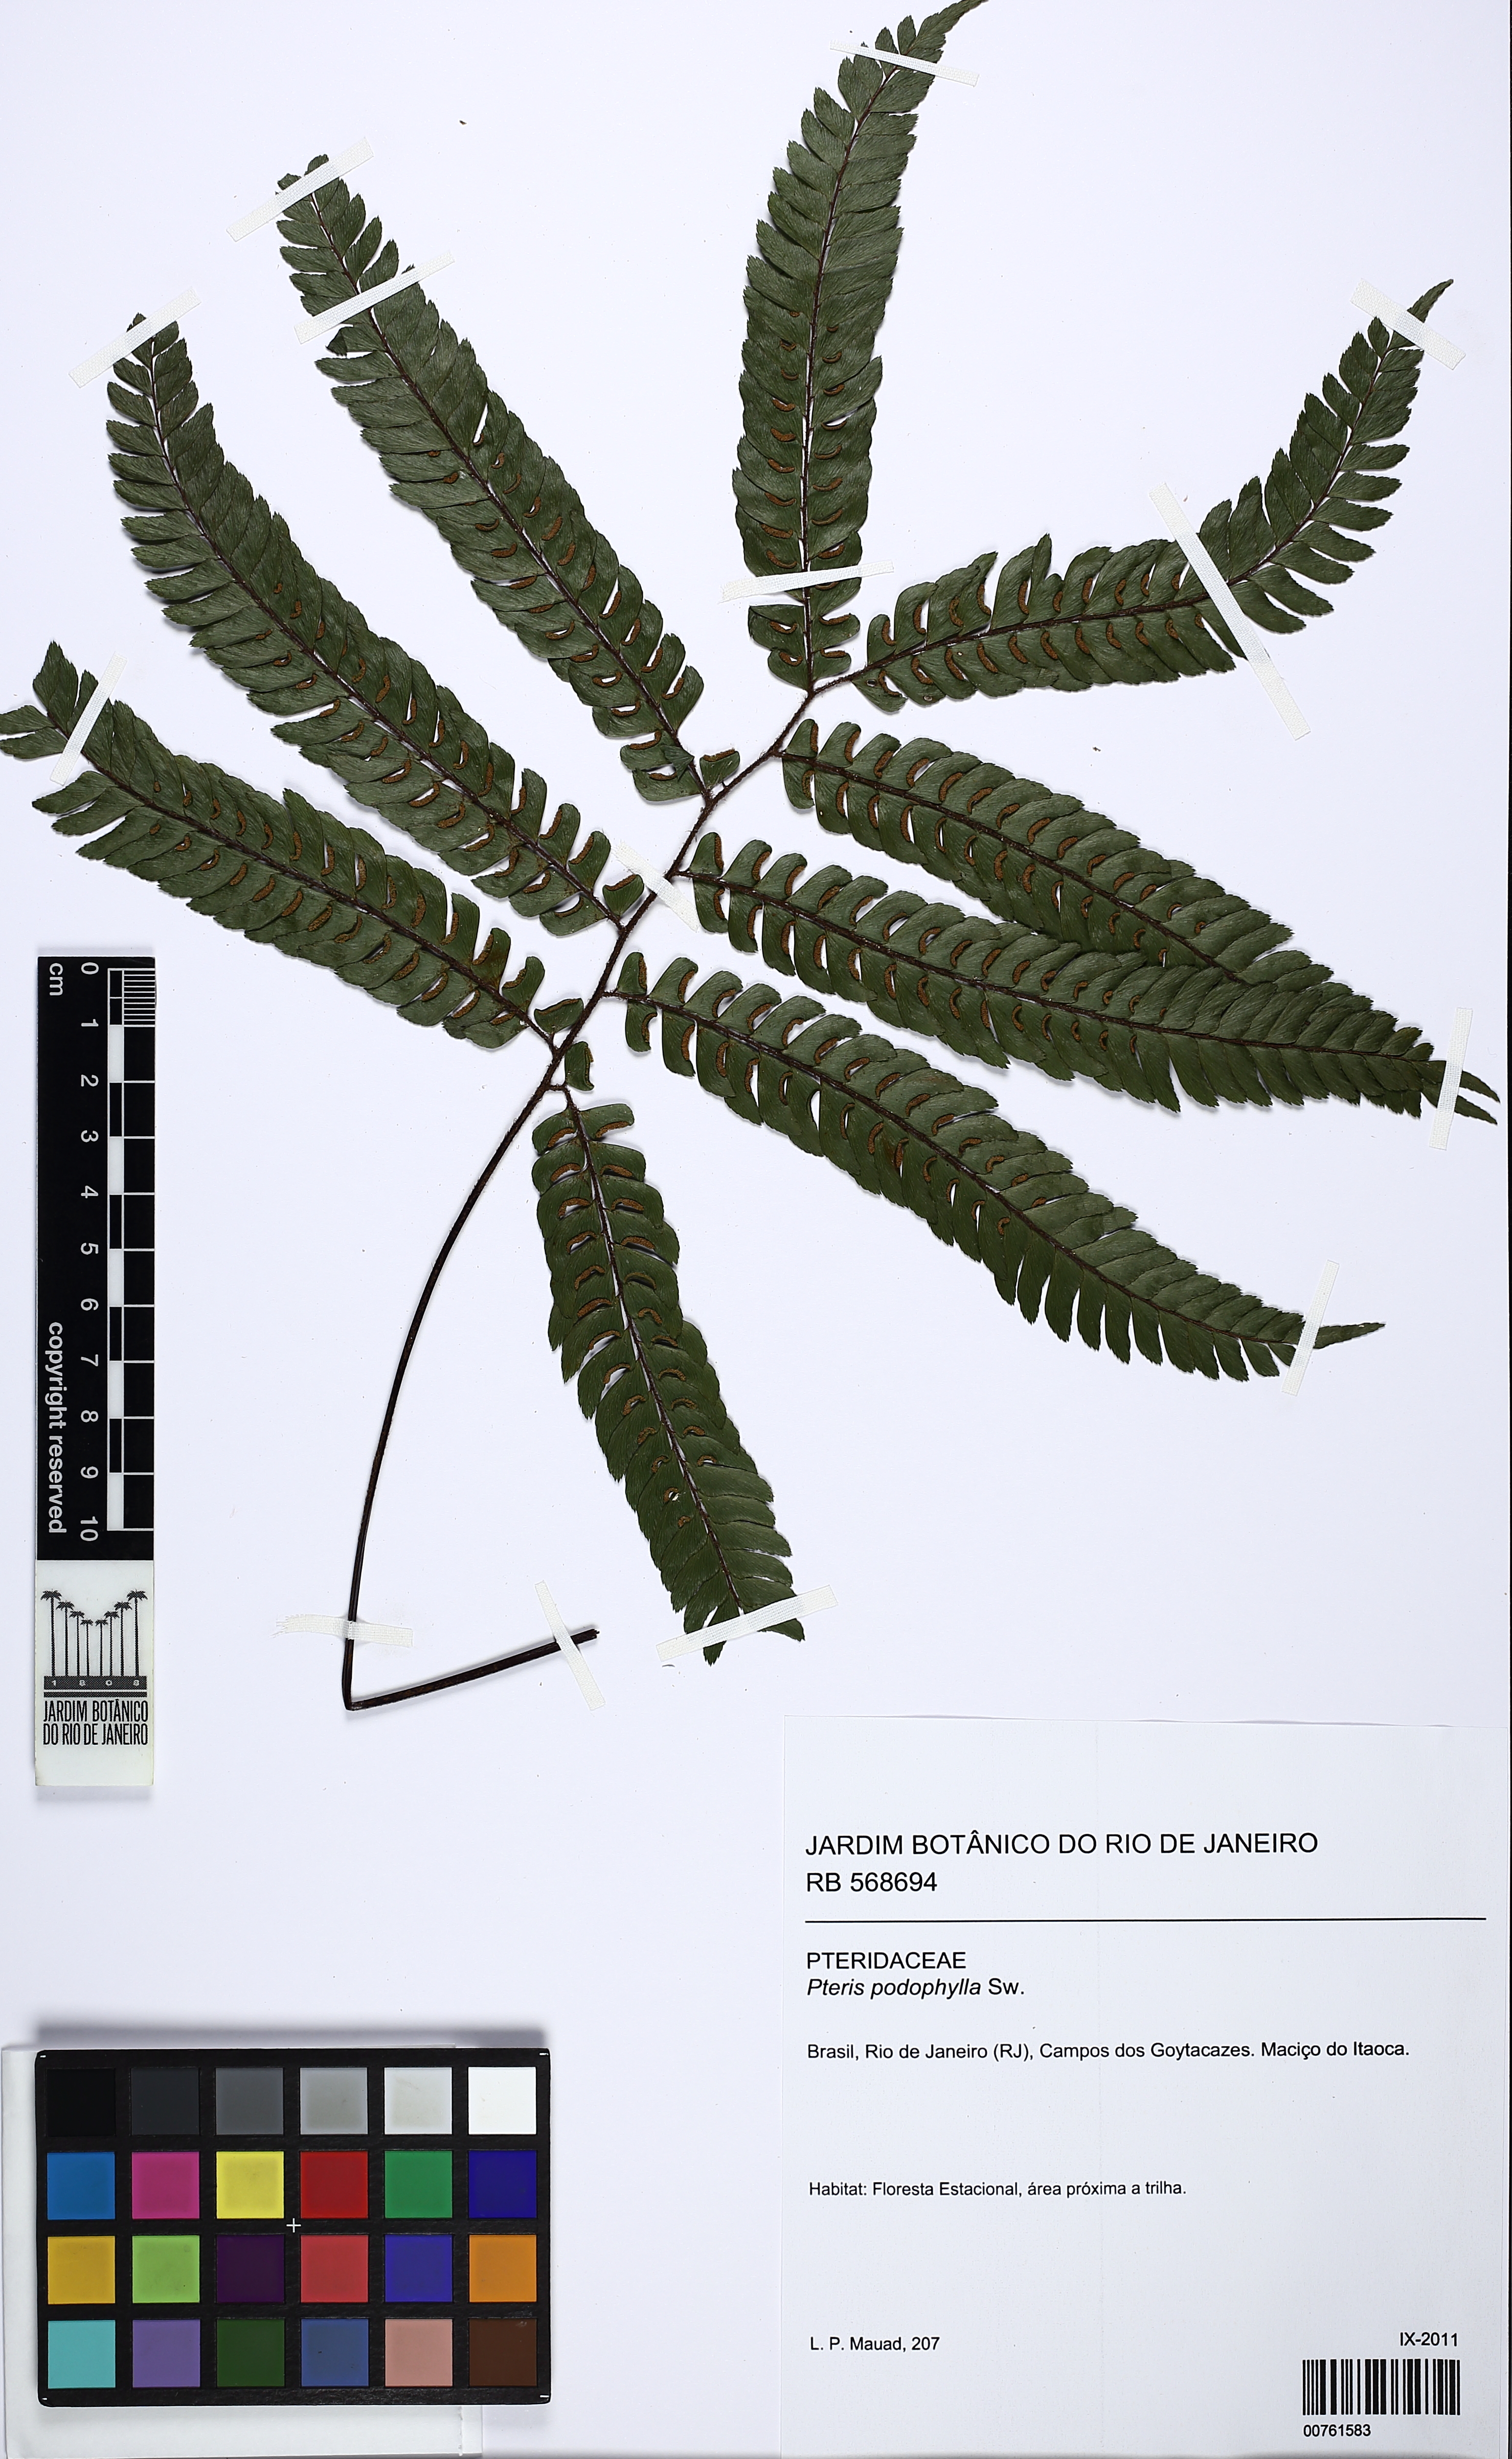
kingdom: Plantae
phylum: Tracheophyta
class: Polypodiopsida
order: Polypodiales
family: Pteridaceae
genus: Adiantum
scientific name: Adiantum pulverulentum
